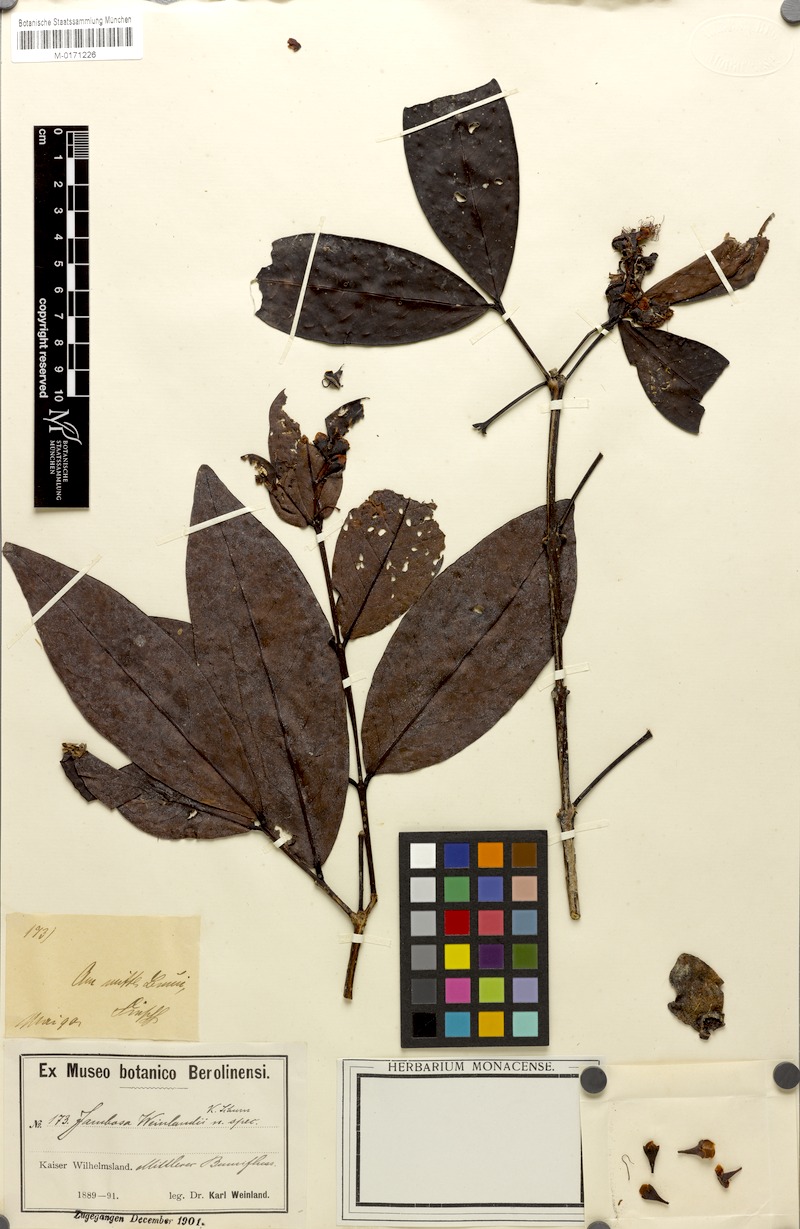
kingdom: Plantae
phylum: Tracheophyta
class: Magnoliopsida
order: Myrtales
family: Myrtaceae
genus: Syzygium
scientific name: Syzygium hylophilum
